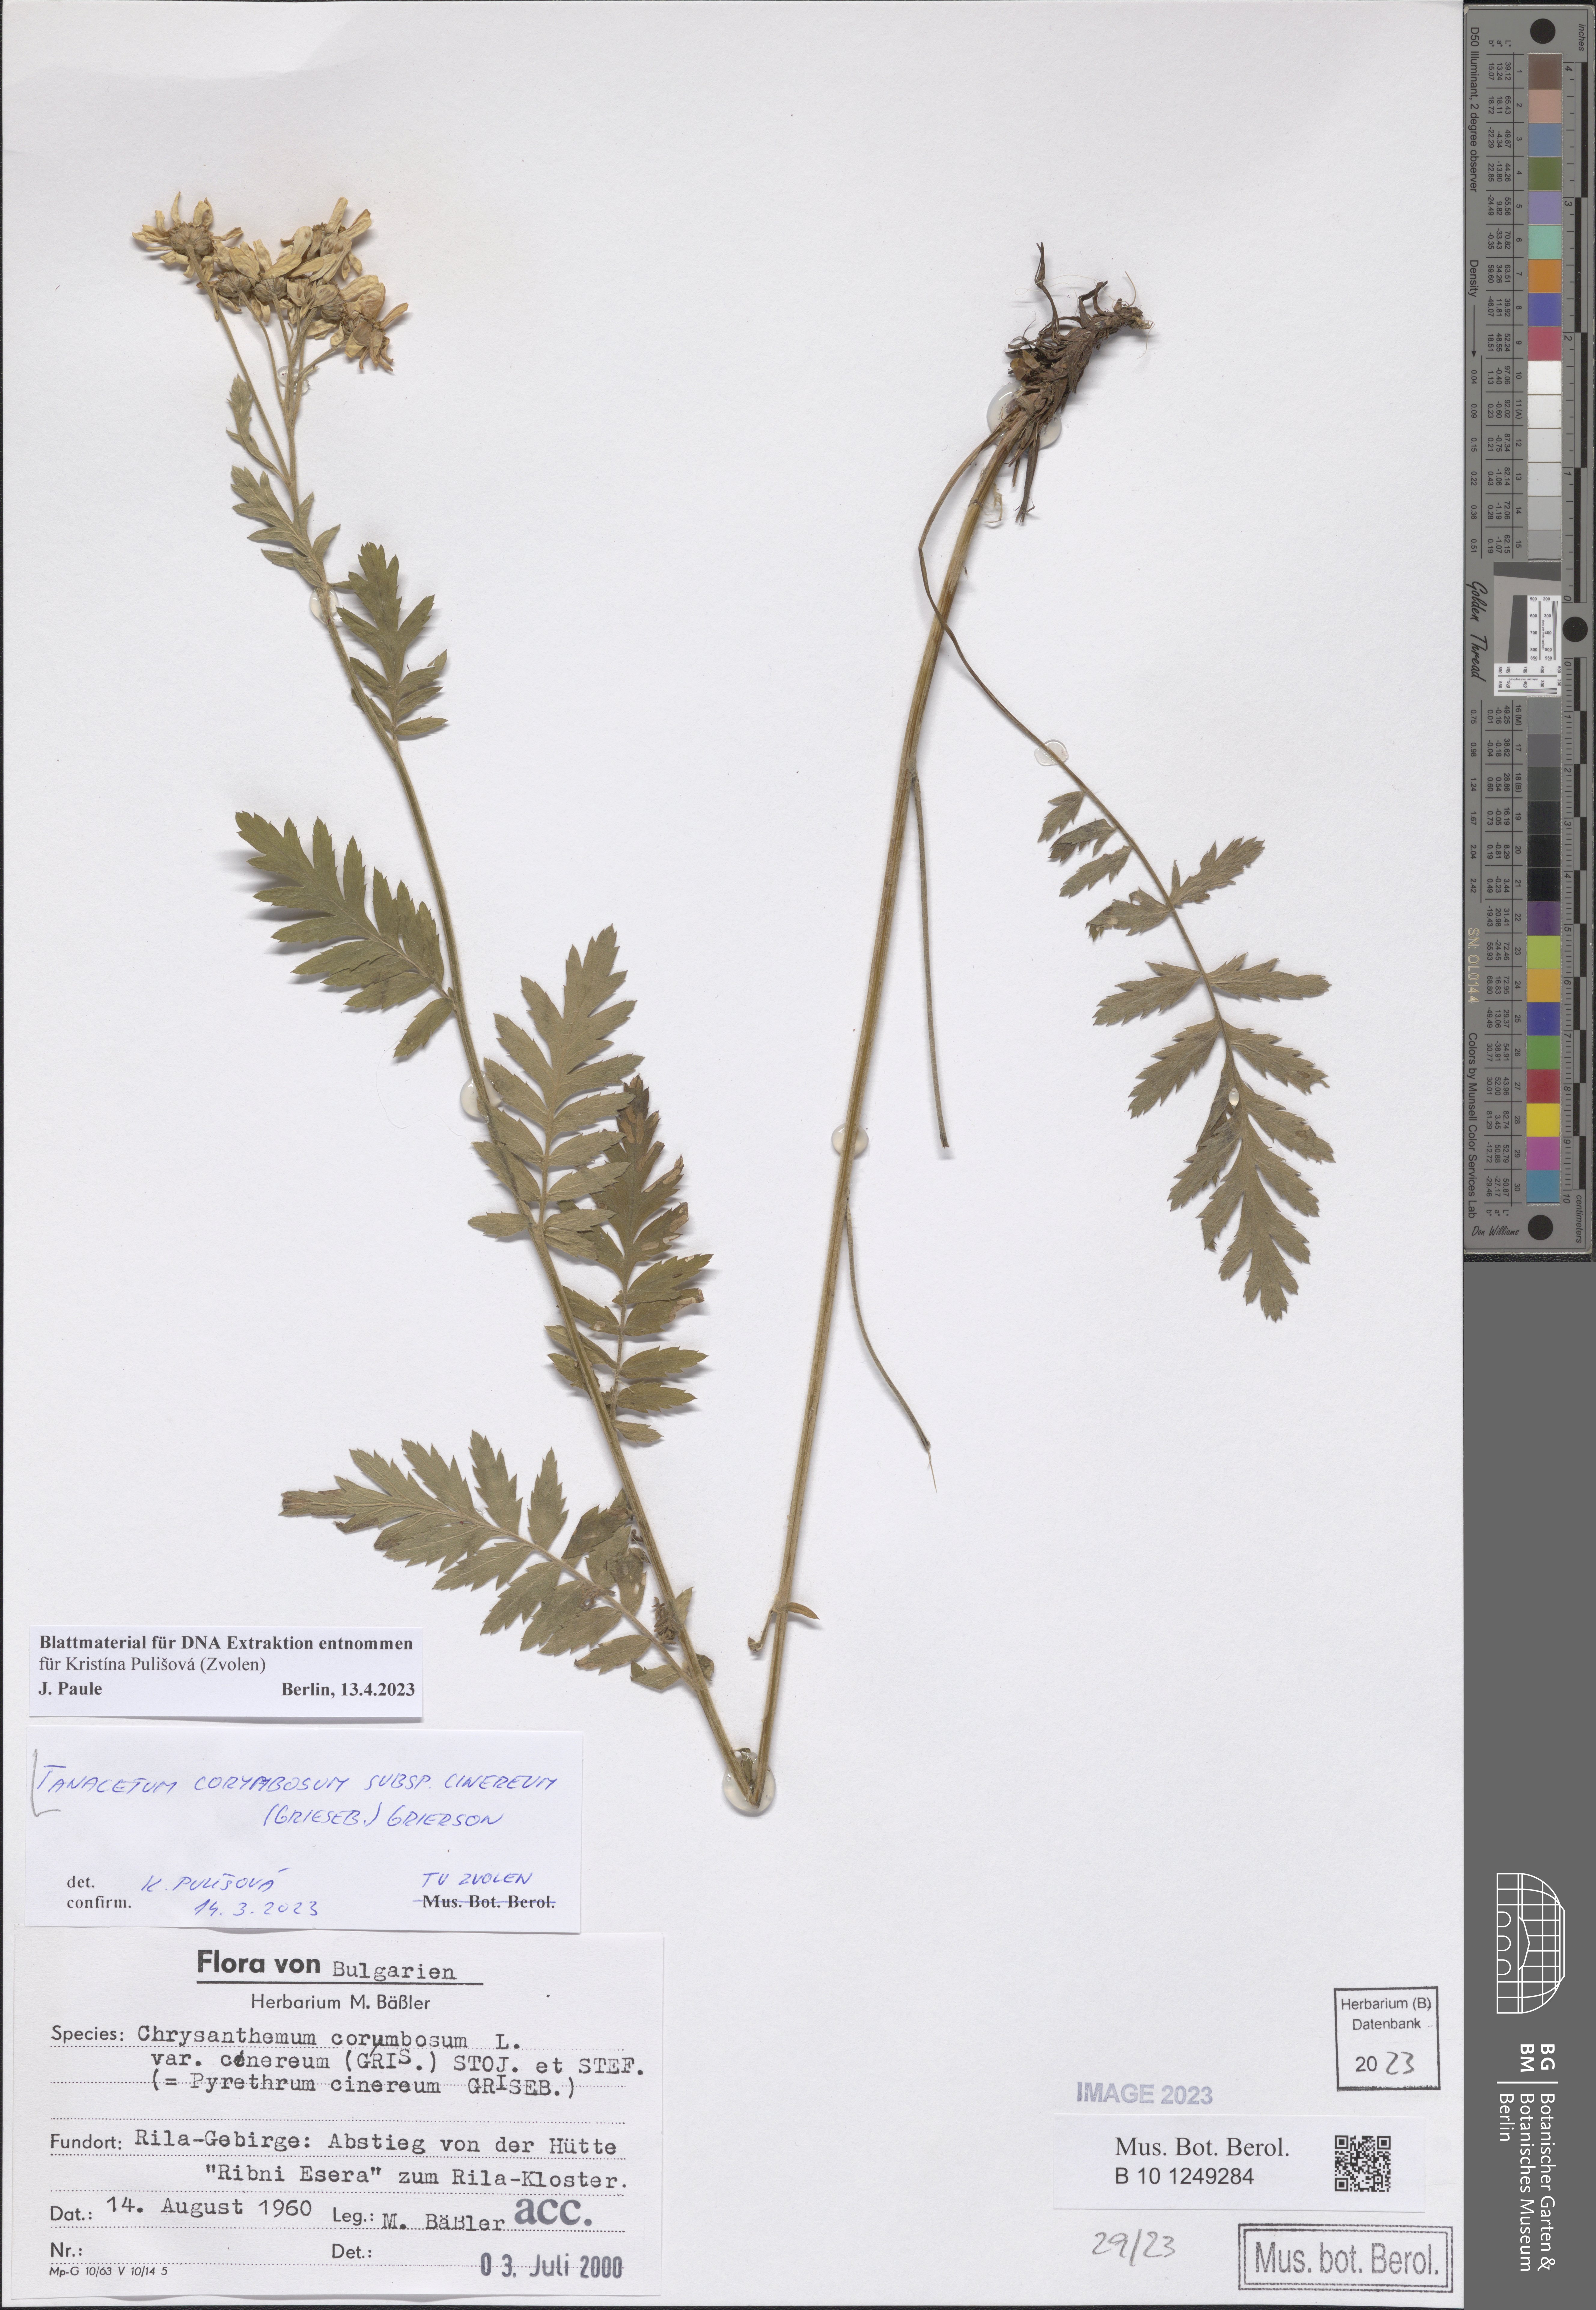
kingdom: Plantae
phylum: Tracheophyta
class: Magnoliopsida
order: Asterales
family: Asteraceae
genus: Tanacetum
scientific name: Tanacetum corymbosum
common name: Scentless feverfew
